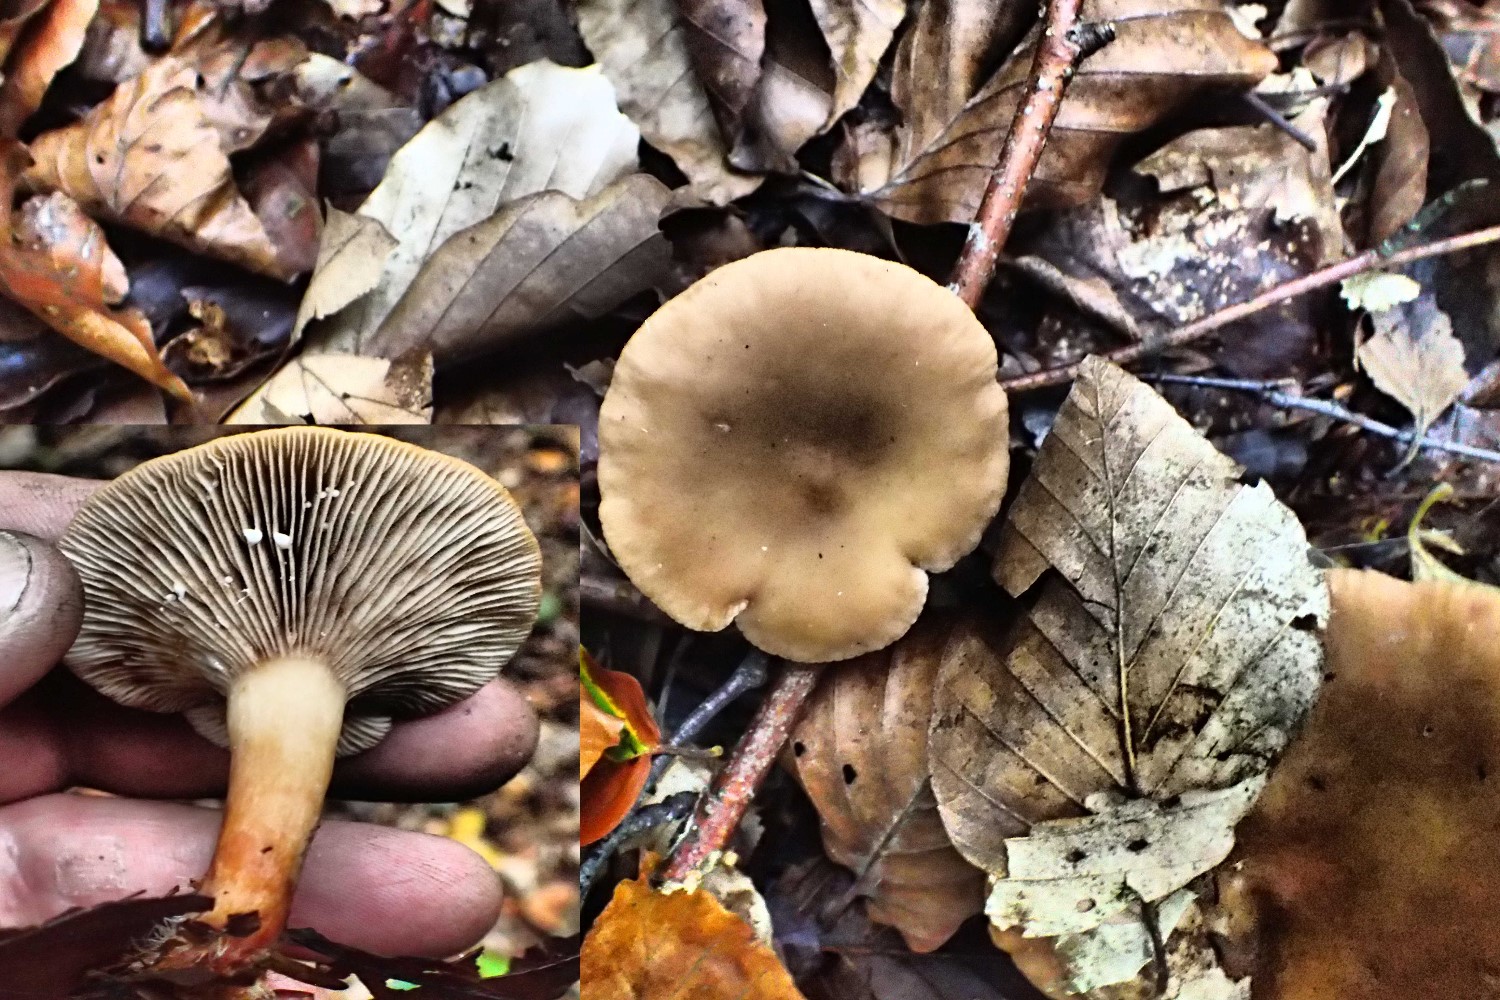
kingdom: Fungi
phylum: Basidiomycota
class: Agaricomycetes
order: Russulales
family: Russulaceae
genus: Lactarius
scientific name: Lactarius subdulcis
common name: sødlig mælkehat
